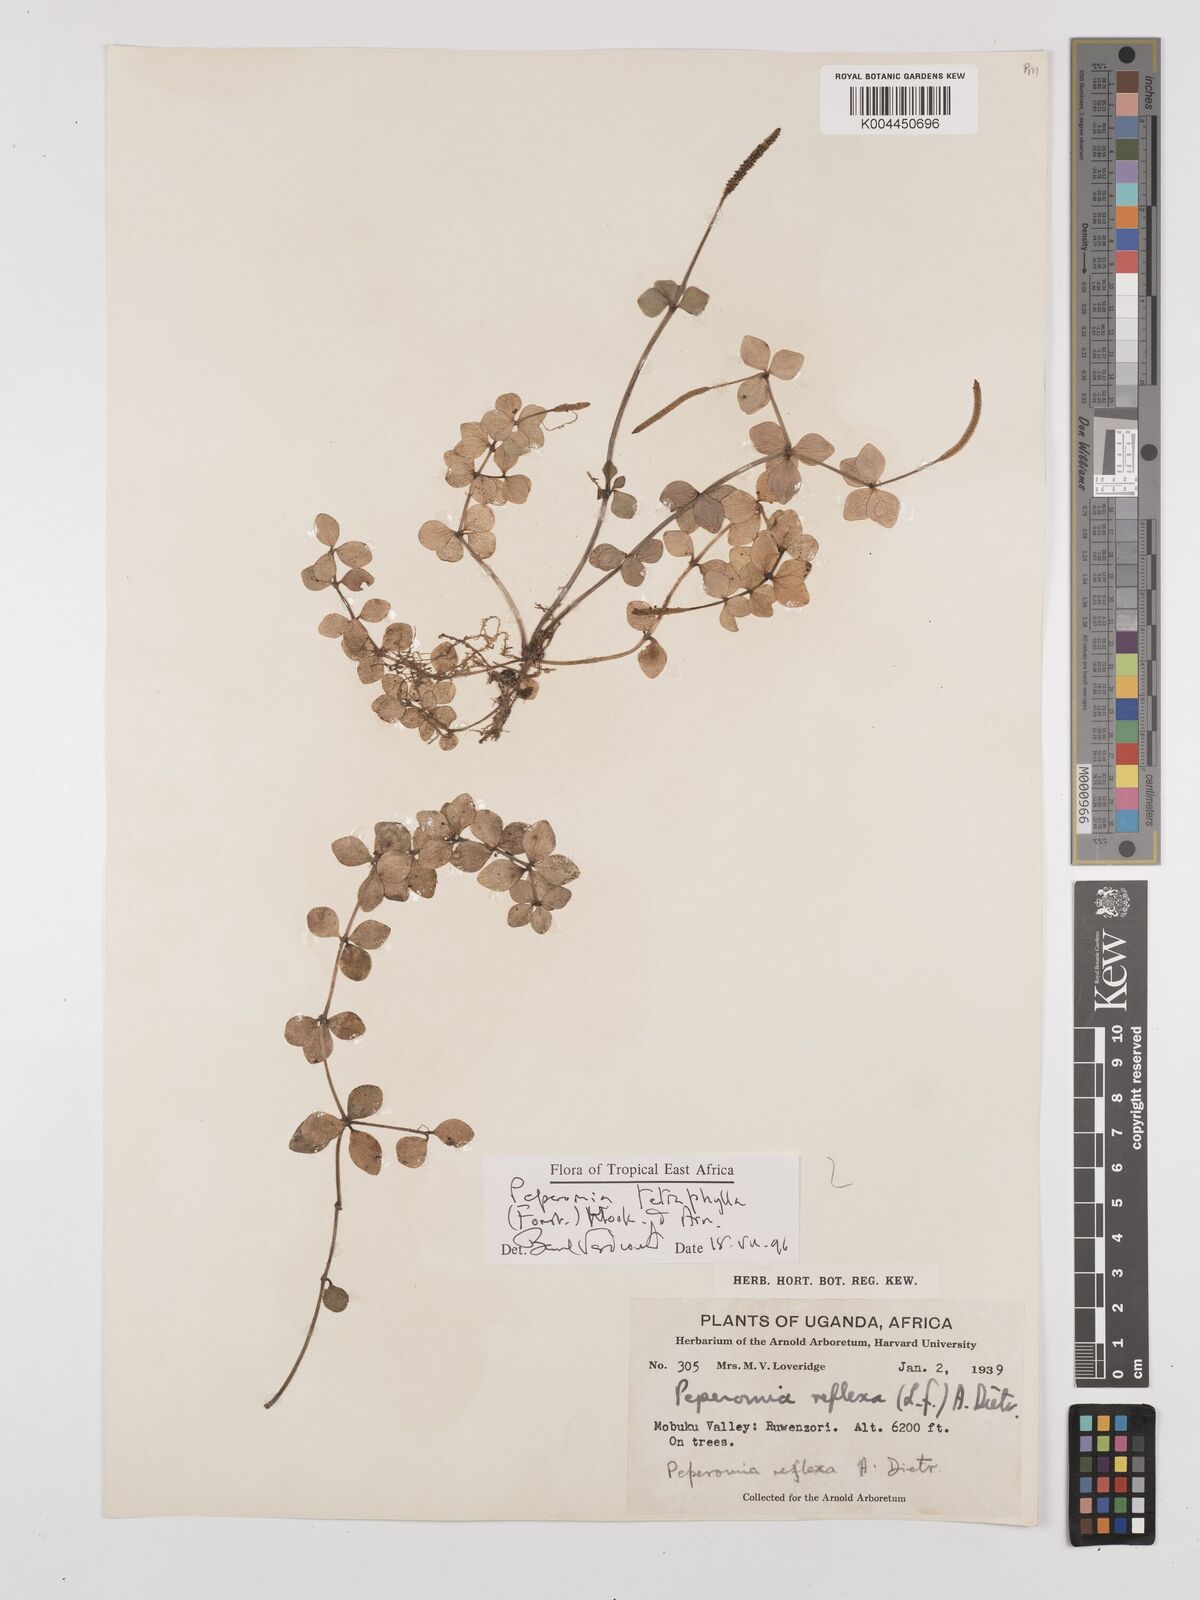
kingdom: Plantae
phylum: Tracheophyta
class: Magnoliopsida
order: Piperales
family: Piperaceae
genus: Peperomia
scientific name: Peperomia tetraphylla
